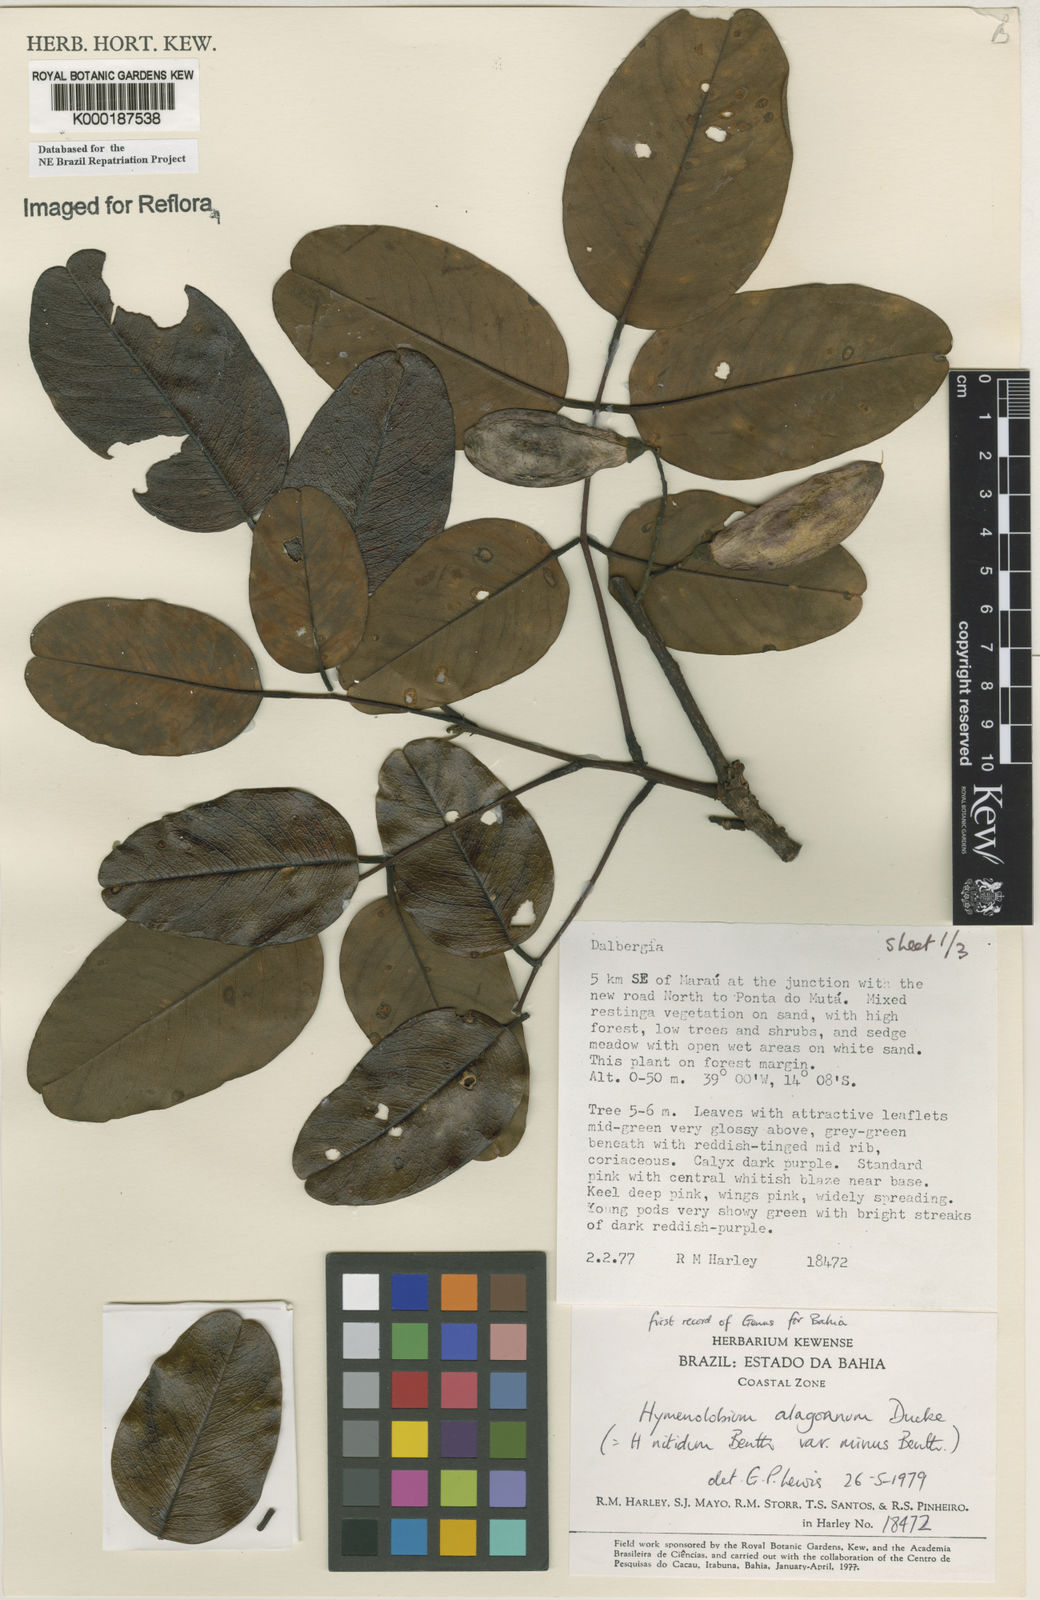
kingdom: Plantae
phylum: Tracheophyta
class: Magnoliopsida
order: Fabales
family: Fabaceae
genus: Hymenolobium
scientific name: Hymenolobium alagoanum
